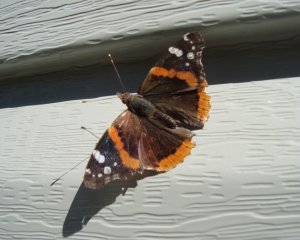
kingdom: Animalia
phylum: Arthropoda
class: Insecta
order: Lepidoptera
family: Nymphalidae
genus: Vanessa
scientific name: Vanessa atalanta
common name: Red Admiral
